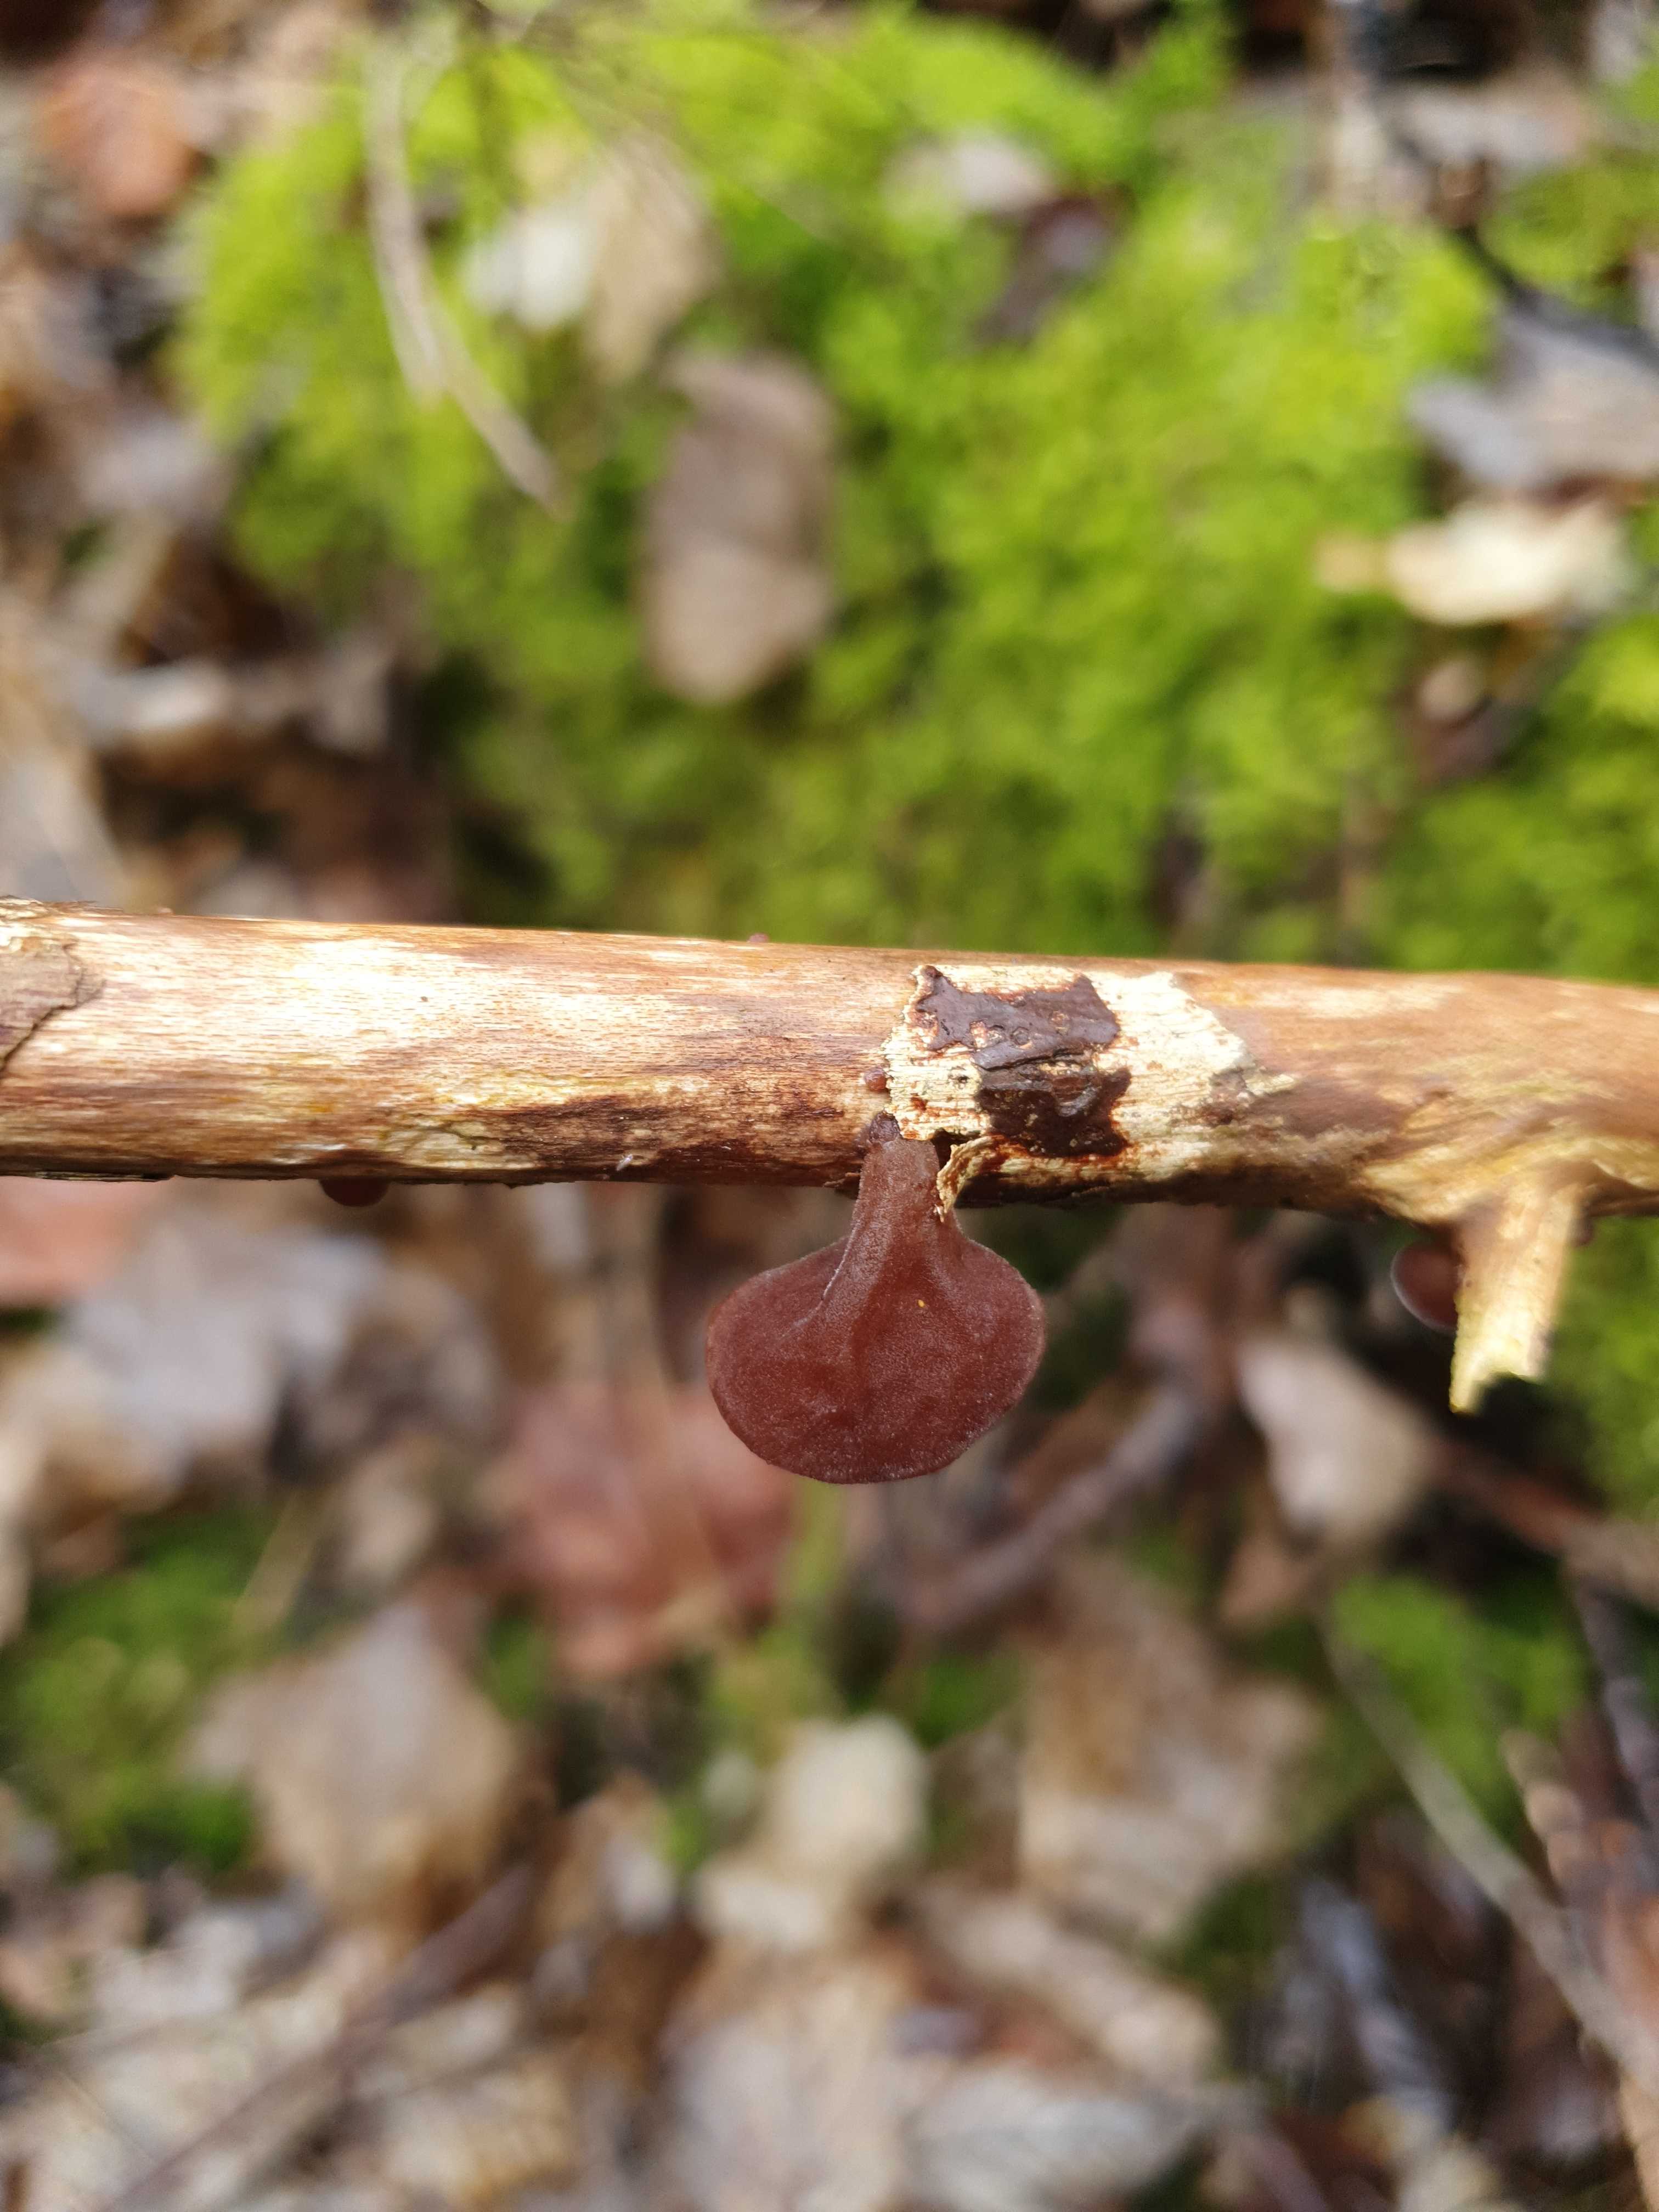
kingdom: Fungi
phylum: Basidiomycota
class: Agaricomycetes
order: Auriculariales
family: Auriculariaceae
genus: Auricularia
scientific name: Auricularia auricula-judae
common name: almindelig judasøre
